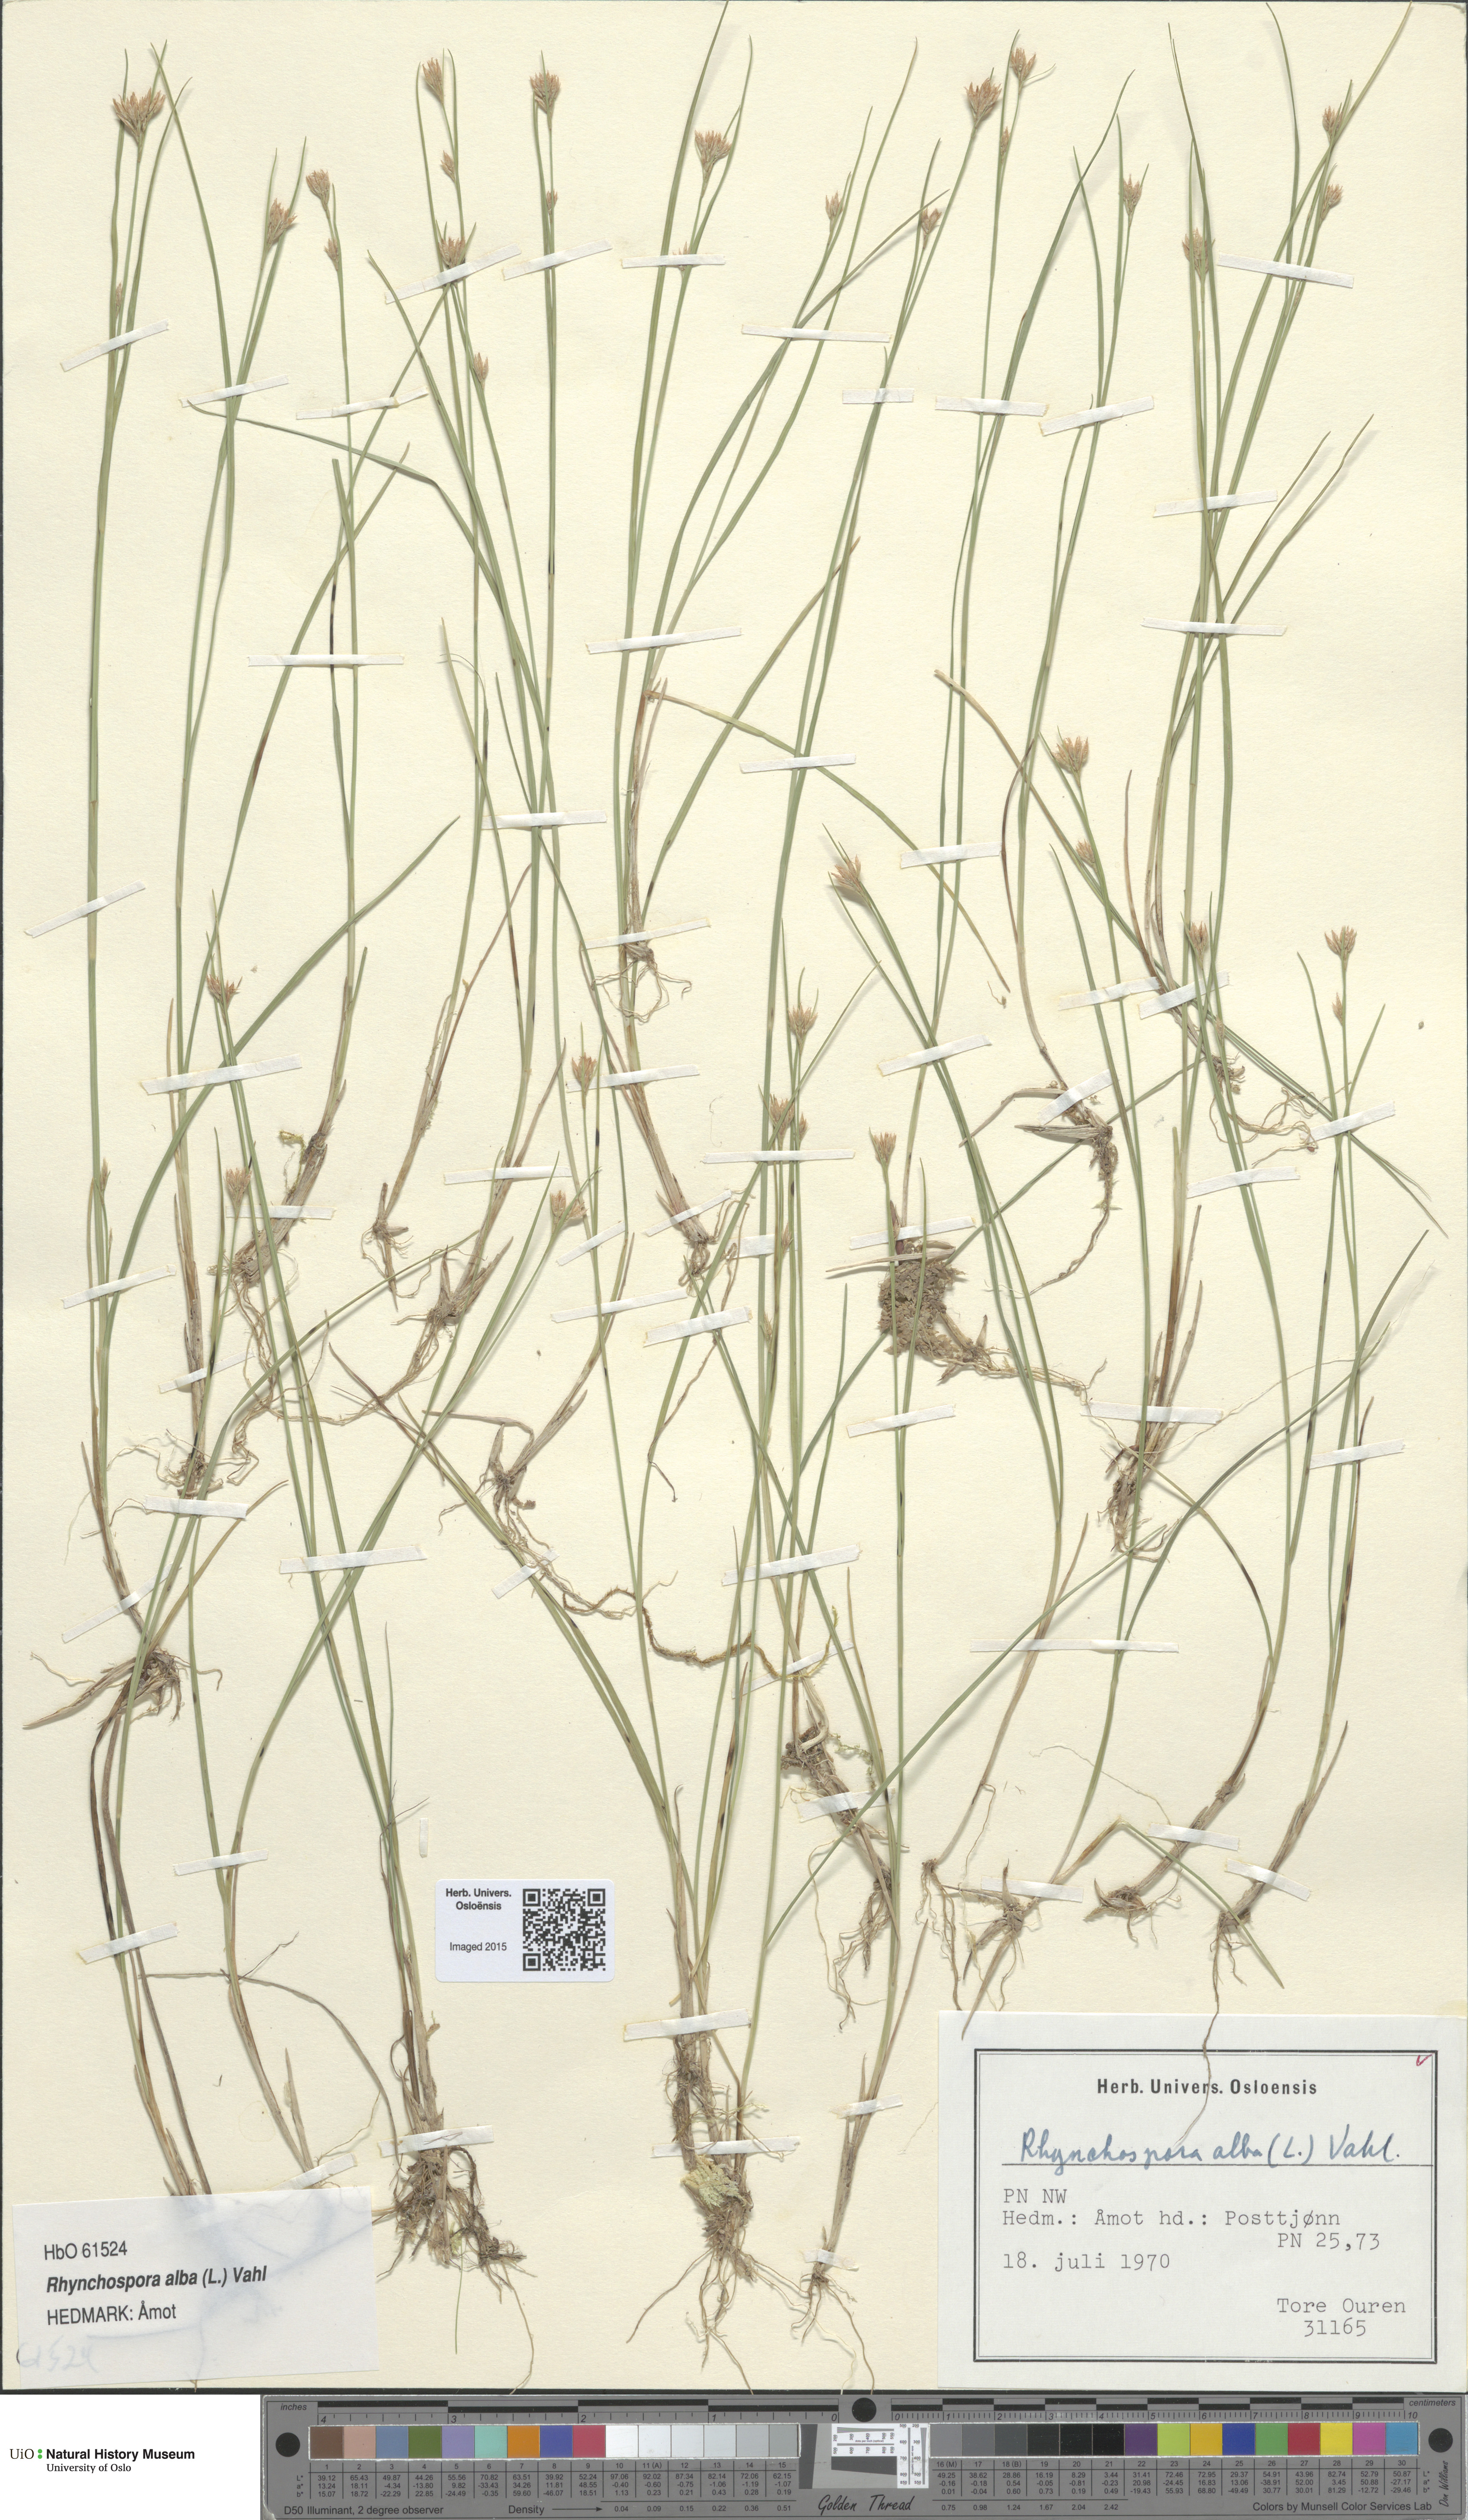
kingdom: Plantae
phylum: Tracheophyta
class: Liliopsida
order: Poales
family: Cyperaceae
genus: Rhynchospora
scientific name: Rhynchospora alba
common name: White beak-sedge
